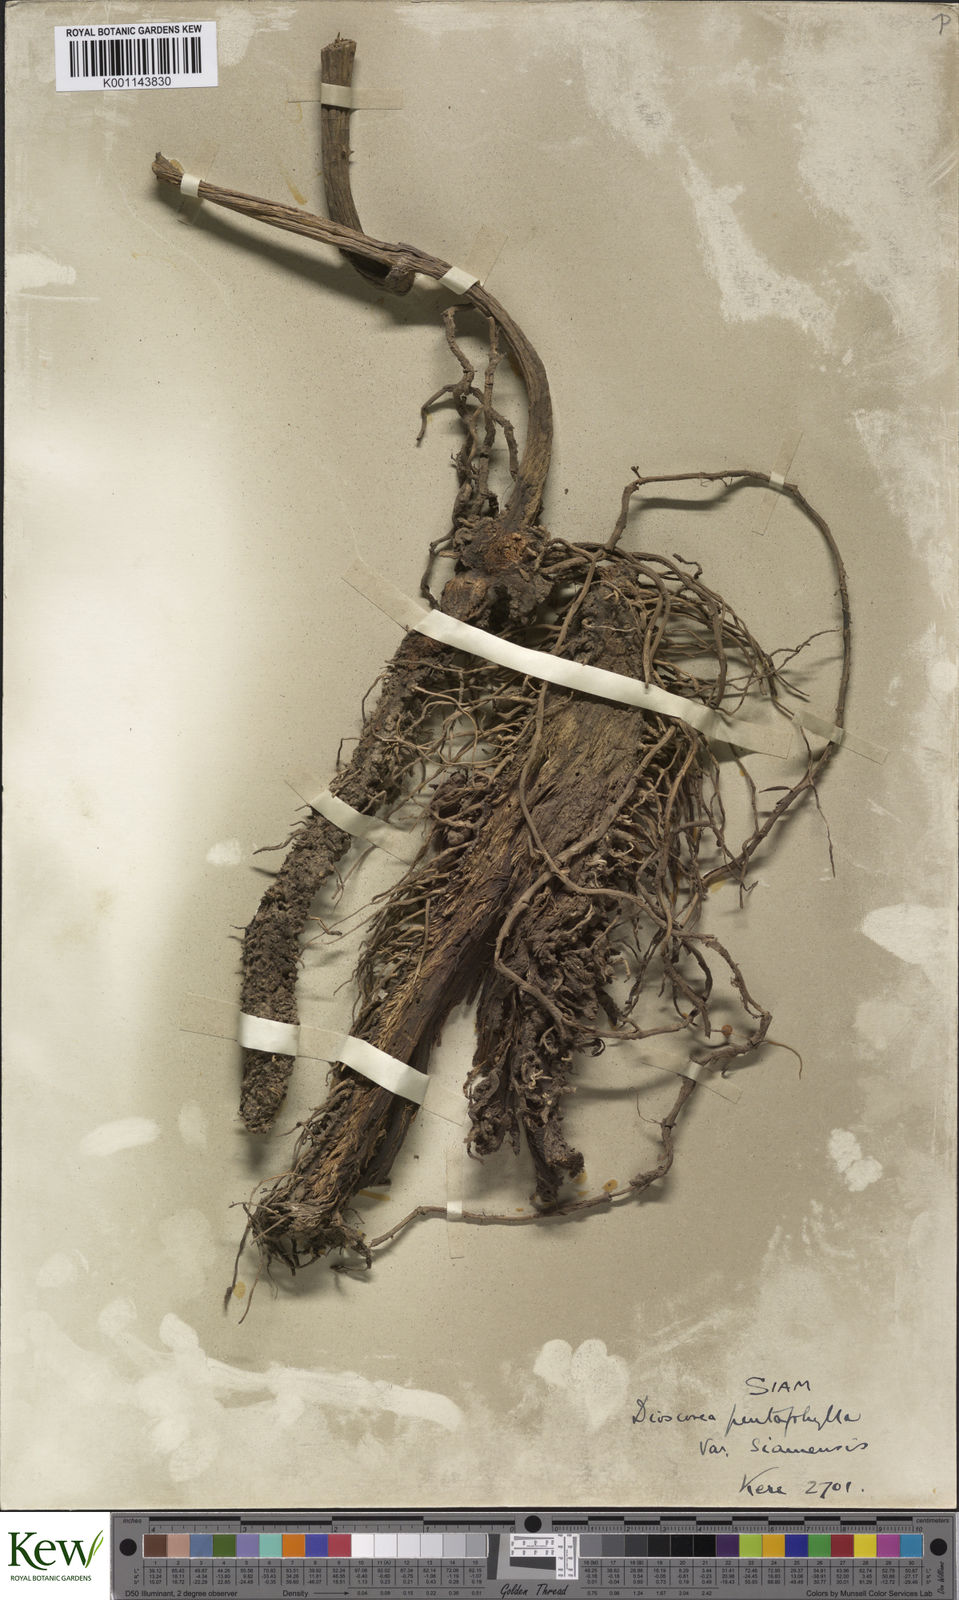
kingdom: Plantae
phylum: Tracheophyta
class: Liliopsida
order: Dioscoreales
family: Dioscoreaceae
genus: Dioscorea
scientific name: Dioscorea pentaphylla
